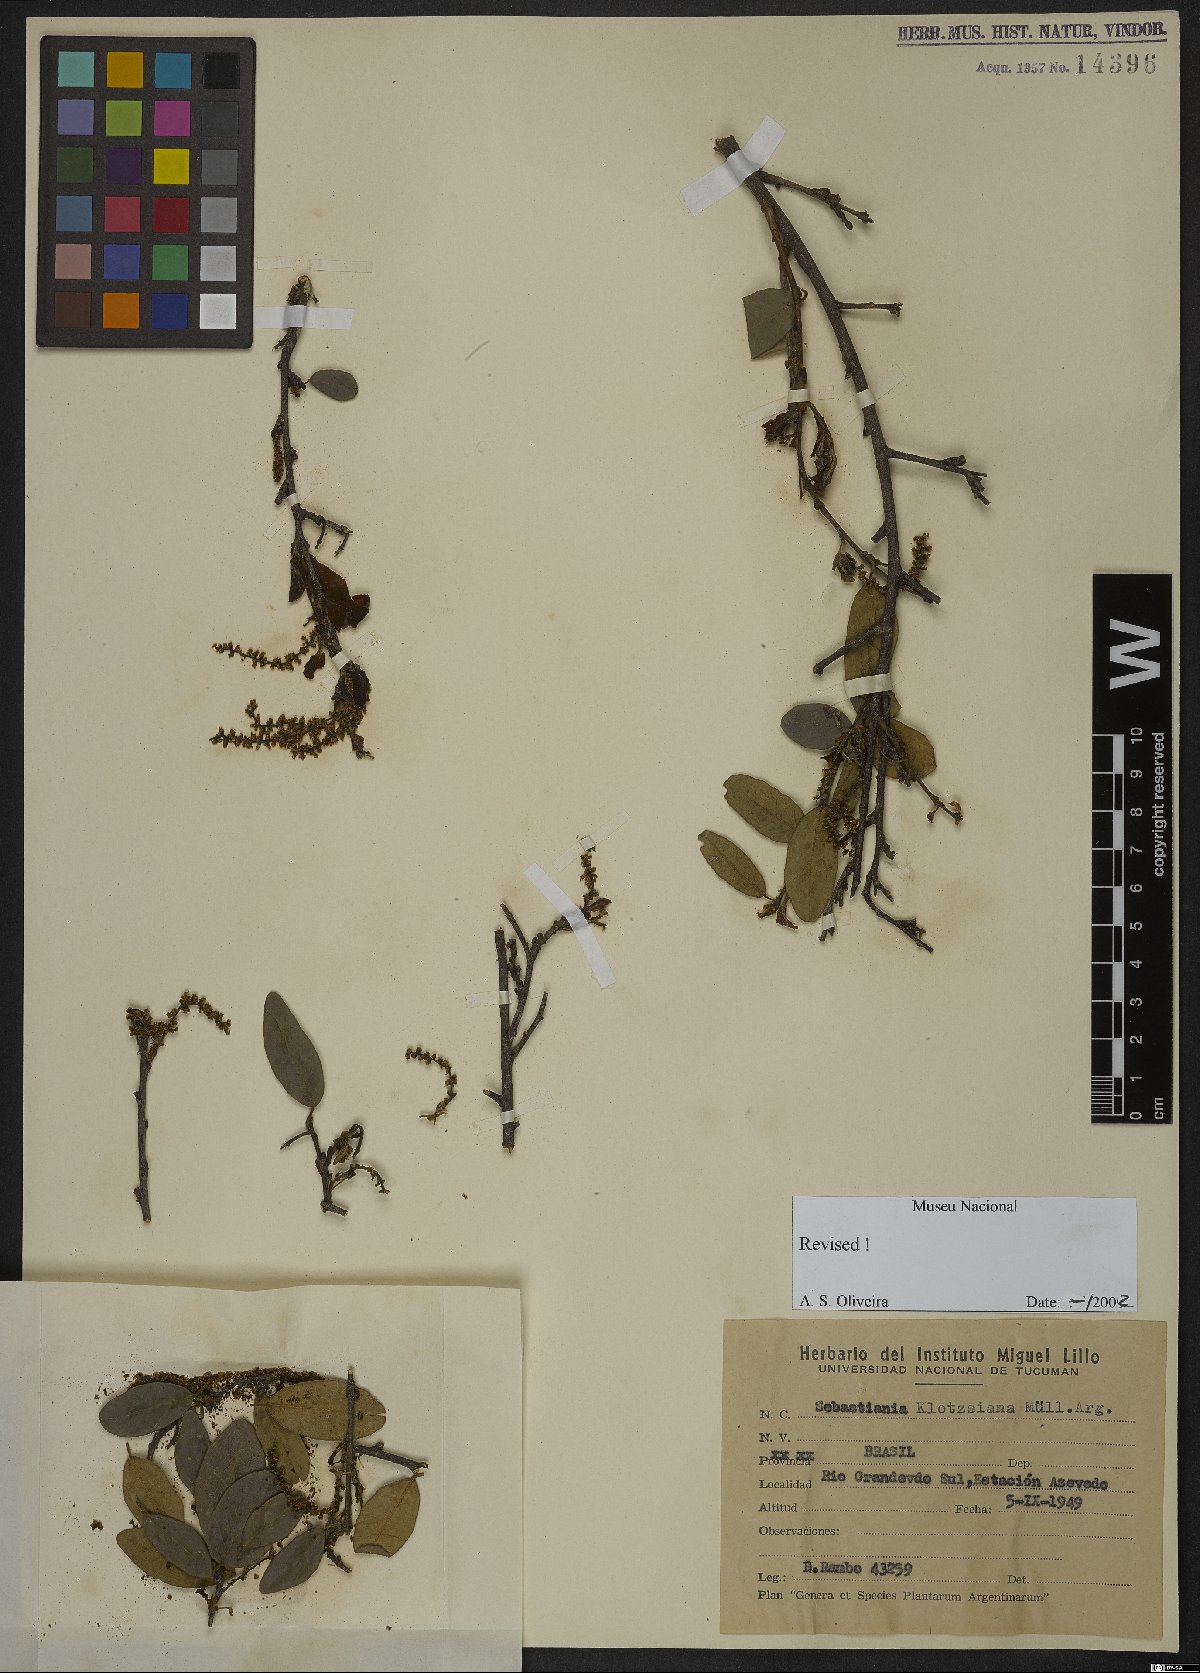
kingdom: Plantae
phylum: Tracheophyta
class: Magnoliopsida
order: Malpighiales
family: Euphorbiaceae
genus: Sebastiania
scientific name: Sebastiania klotzschiana
